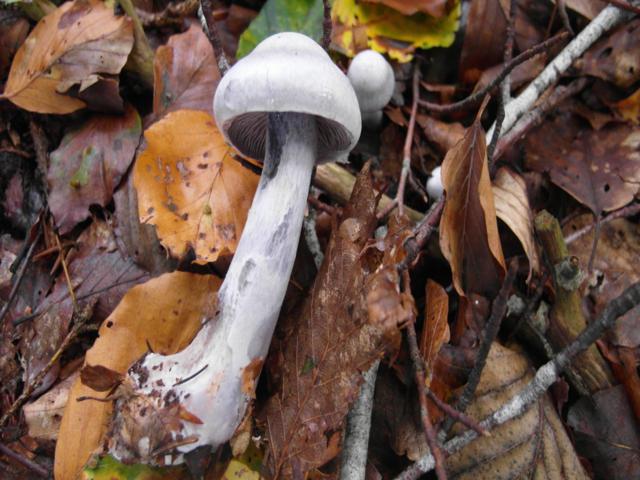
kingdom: Fungi
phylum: Basidiomycota
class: Agaricomycetes
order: Agaricales
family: Cortinariaceae
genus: Cortinarius
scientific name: Cortinarius alboviolaceus
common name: lysviolet slørhat
